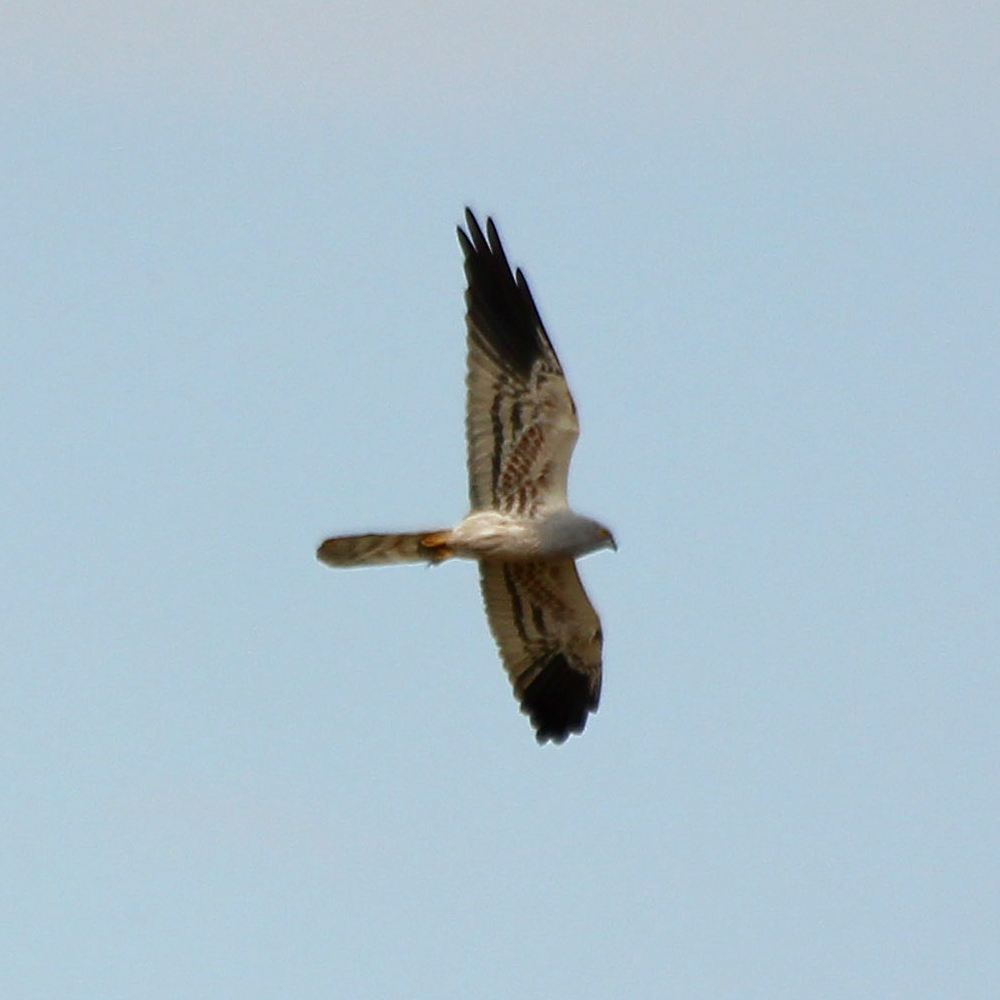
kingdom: Animalia
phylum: Chordata
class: Aves
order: Accipitriformes
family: Accipitridae
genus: Circus
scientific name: Circus pygargus
